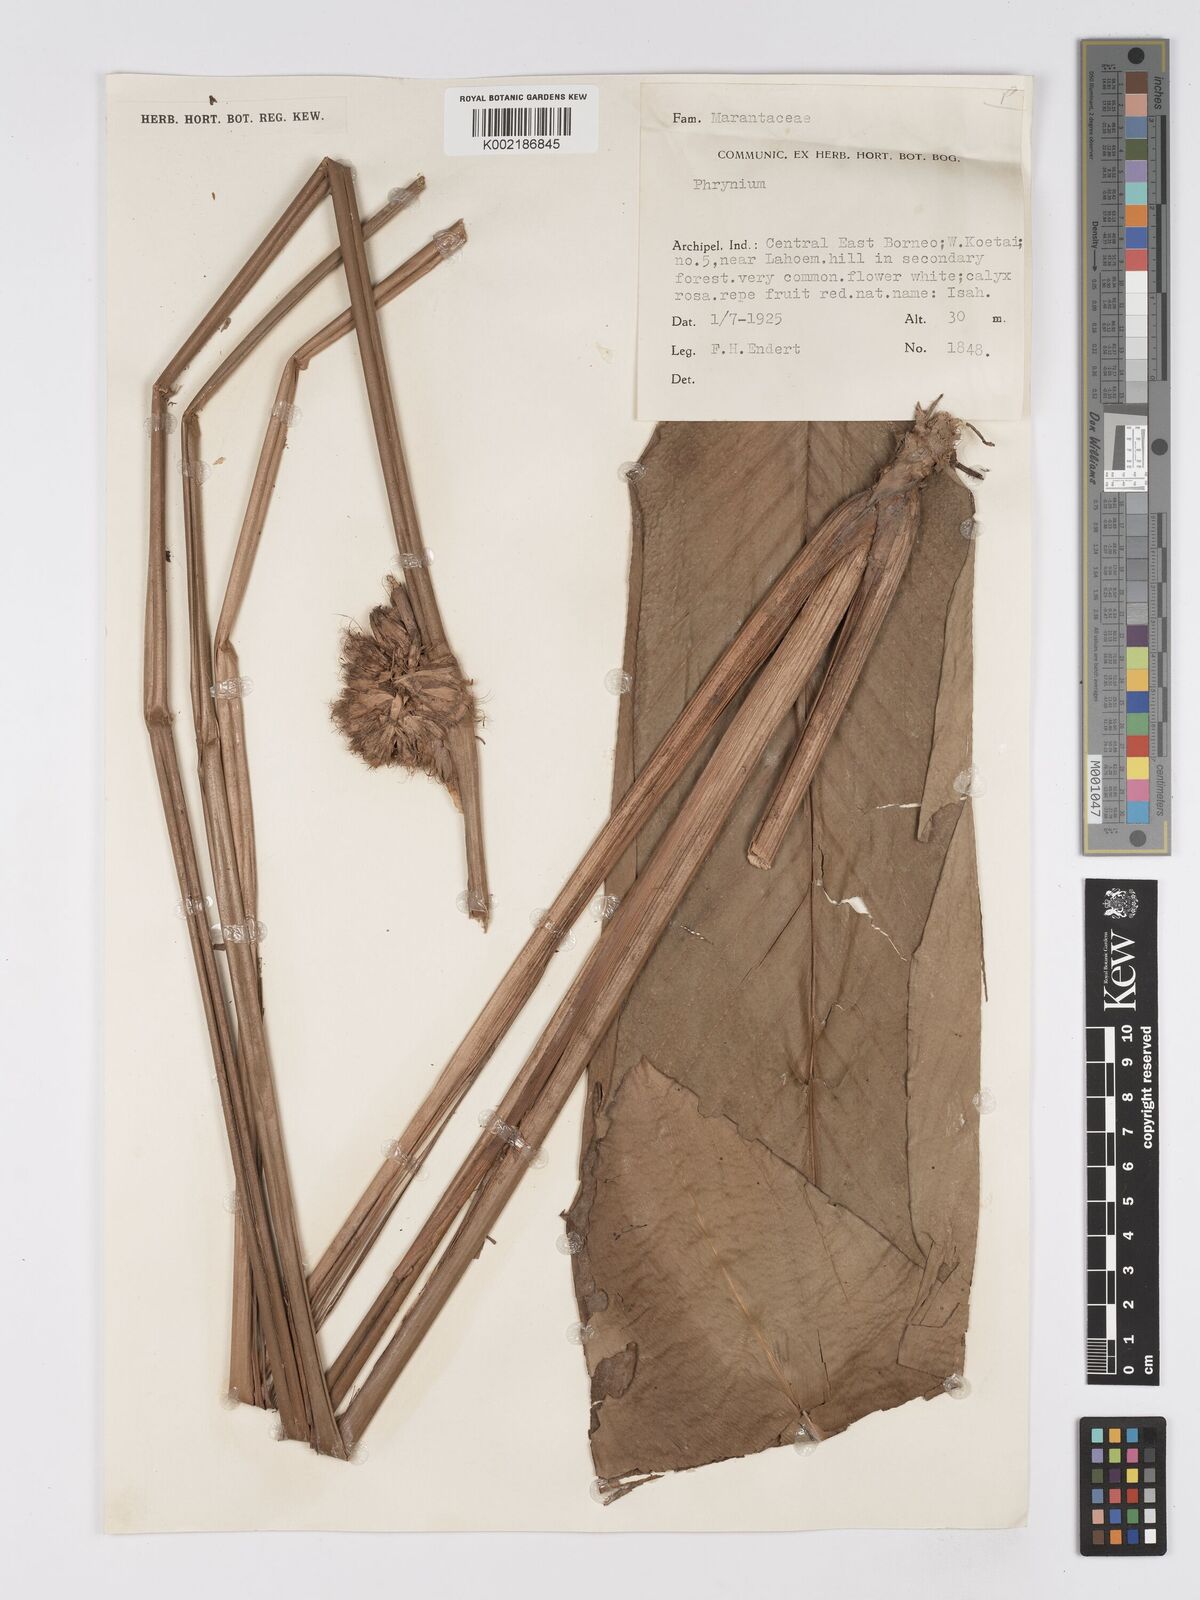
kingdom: Plantae
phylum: Tracheophyta
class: Liliopsida
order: Zingiberales
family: Marantaceae
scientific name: Marantaceae
